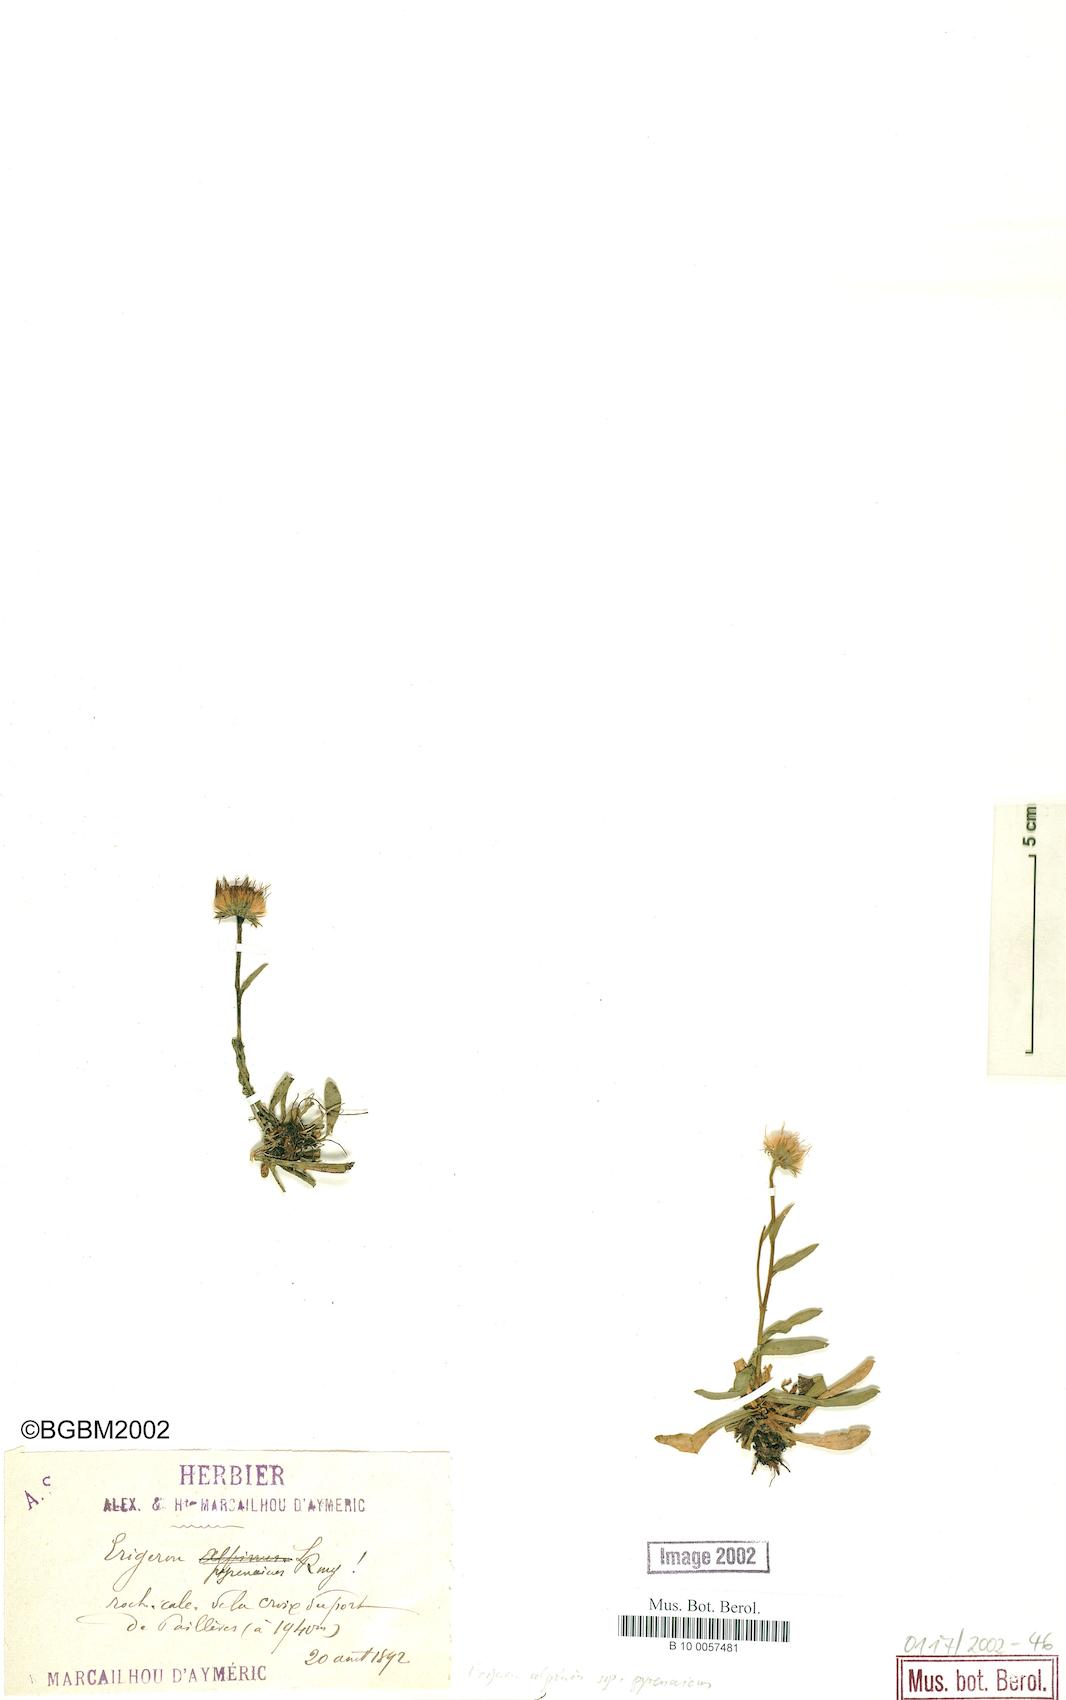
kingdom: Plantae
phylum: Tracheophyta
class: Magnoliopsida
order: Asterales
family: Asteraceae
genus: Erigeron
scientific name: Erigeron uniflorus
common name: Northern daisy
